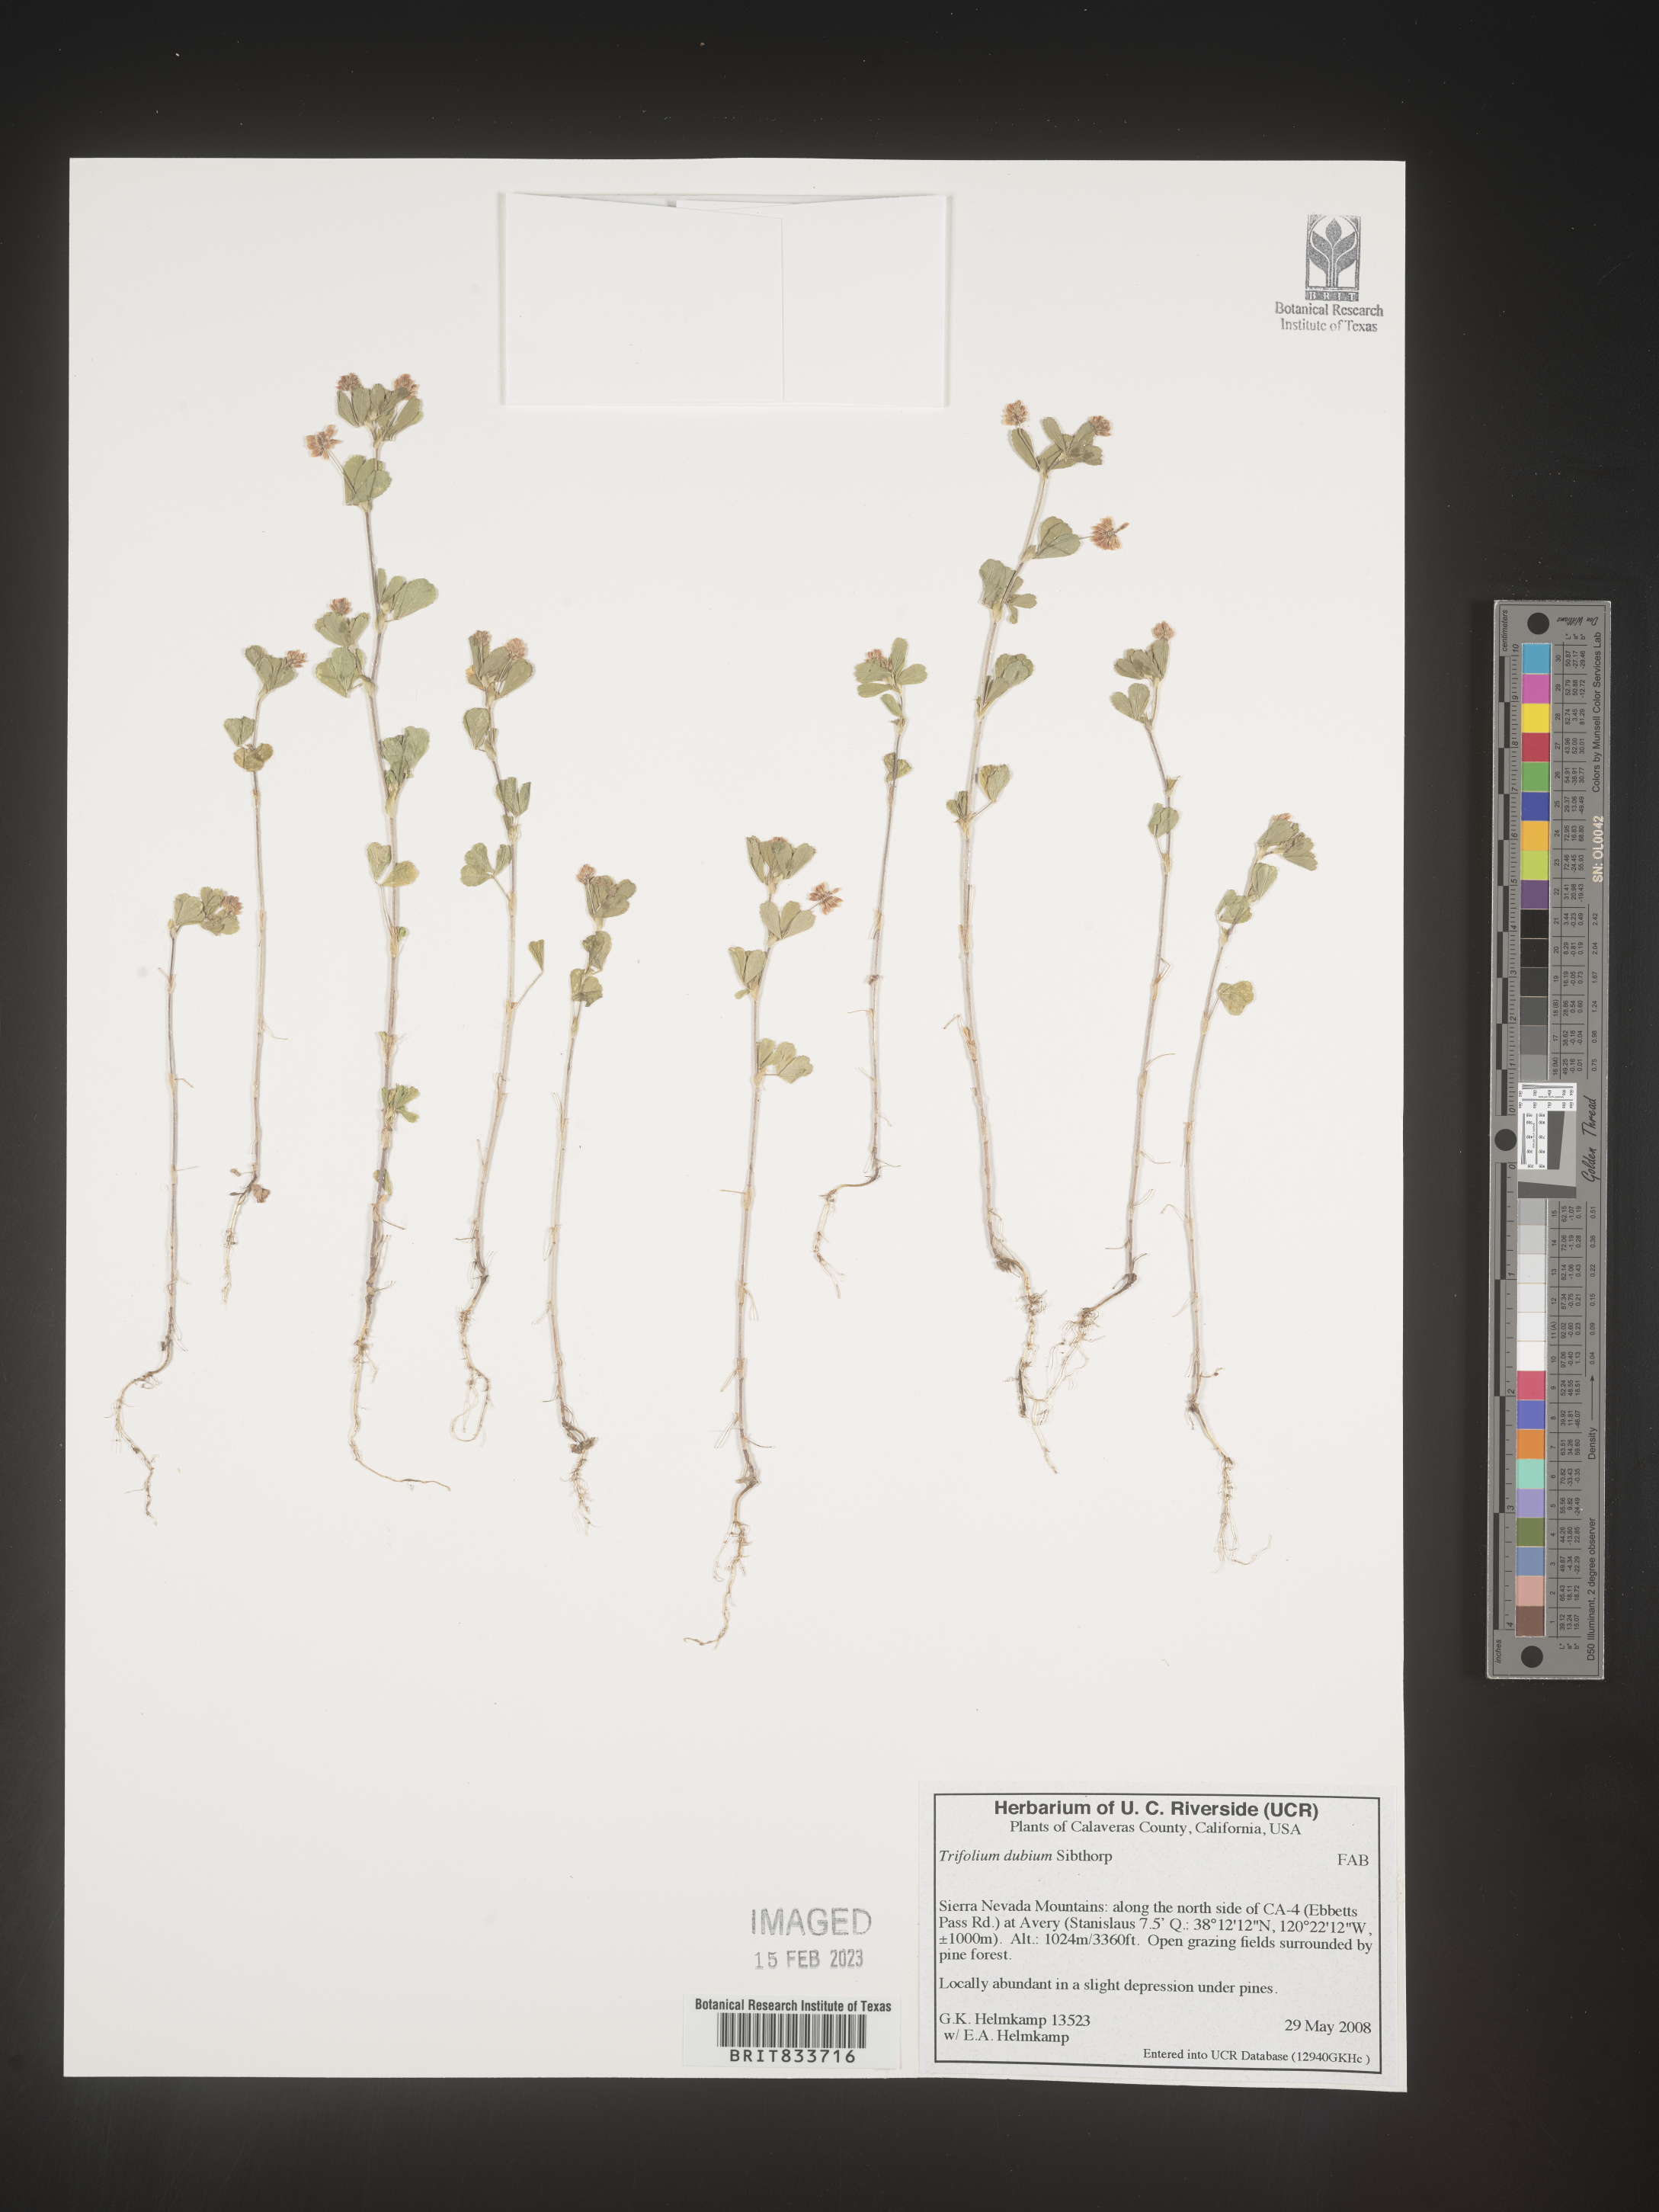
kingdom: Plantae
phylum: Tracheophyta
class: Magnoliopsida
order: Fabales
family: Fabaceae
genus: Trifolium
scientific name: Trifolium dubium
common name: Suckling clover
